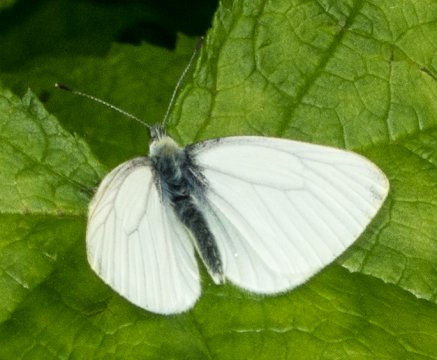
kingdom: Animalia
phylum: Arthropoda
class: Insecta
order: Lepidoptera
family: Pieridae
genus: Pieris
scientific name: Pieris marginalis
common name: Margined White
